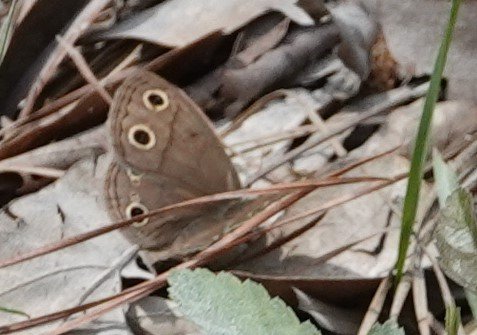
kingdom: Animalia
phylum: Arthropoda
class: Insecta
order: Lepidoptera
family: Nymphalidae
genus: Euptychia
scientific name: Euptychia cymela
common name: Little Wood Satyr
